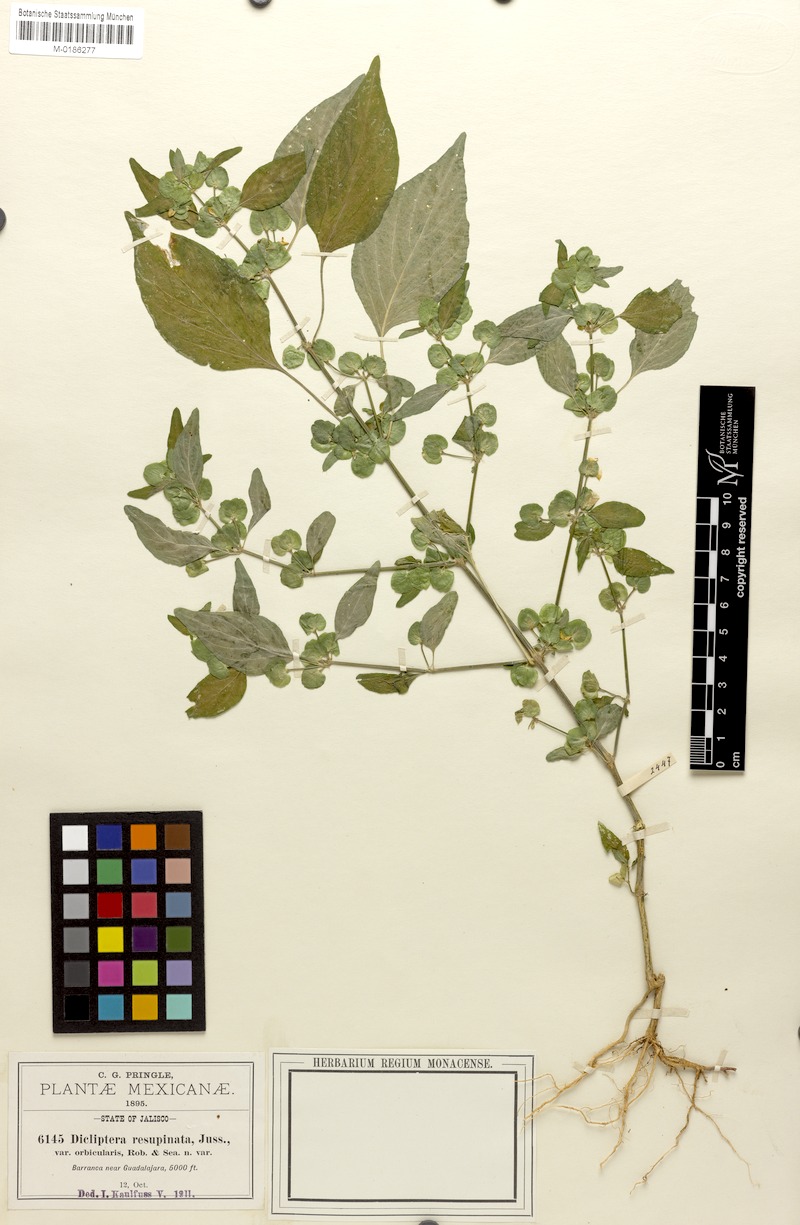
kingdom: Plantae
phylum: Tracheophyta
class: Magnoliopsida
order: Lamiales
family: Acanthaceae
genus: Dicliptera
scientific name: Dicliptera resupinata
